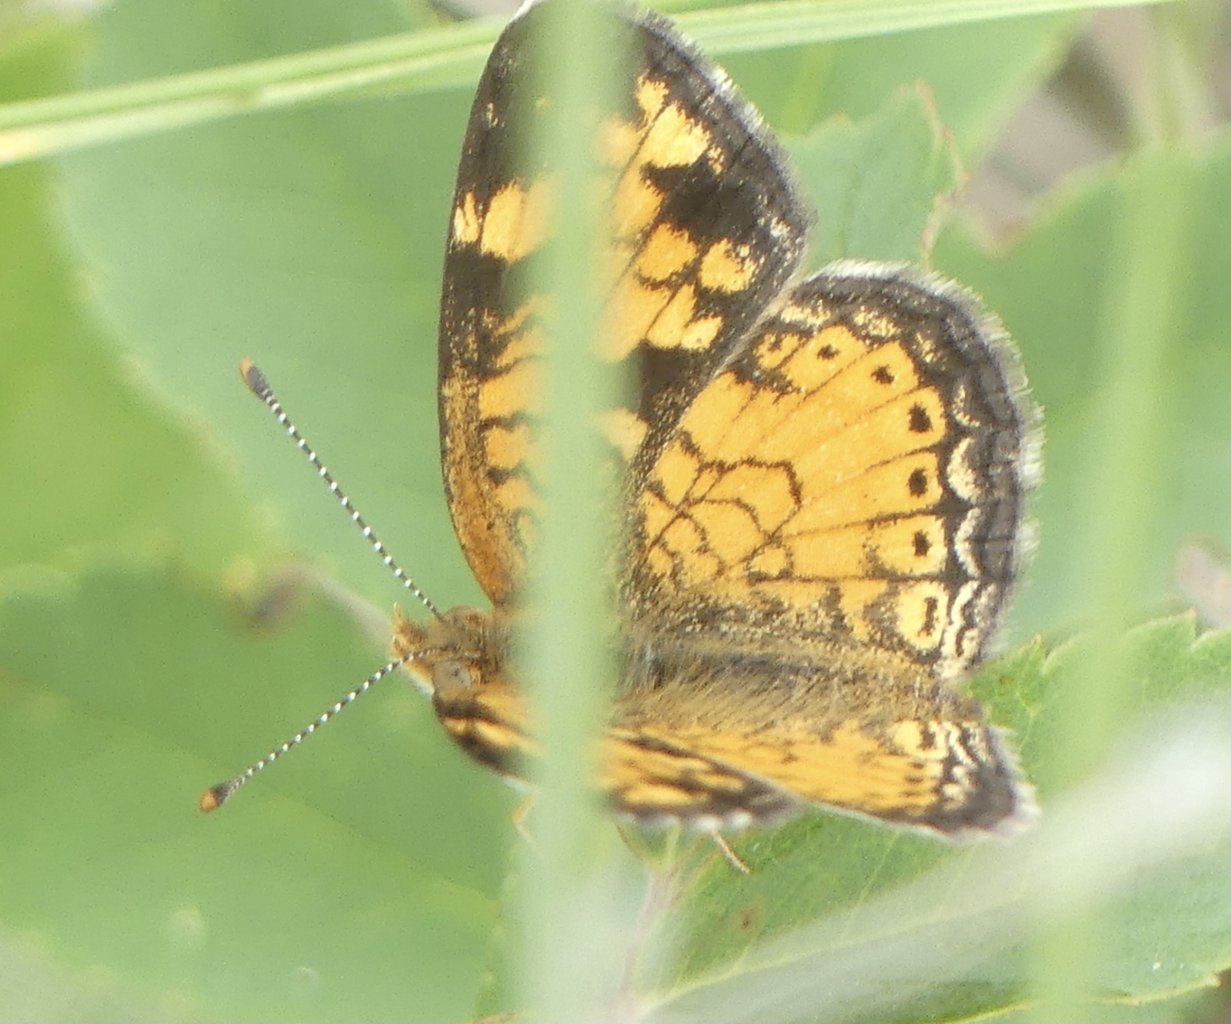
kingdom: Animalia
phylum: Arthropoda
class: Insecta
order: Lepidoptera
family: Nymphalidae
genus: Phyciodes
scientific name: Phyciodes
